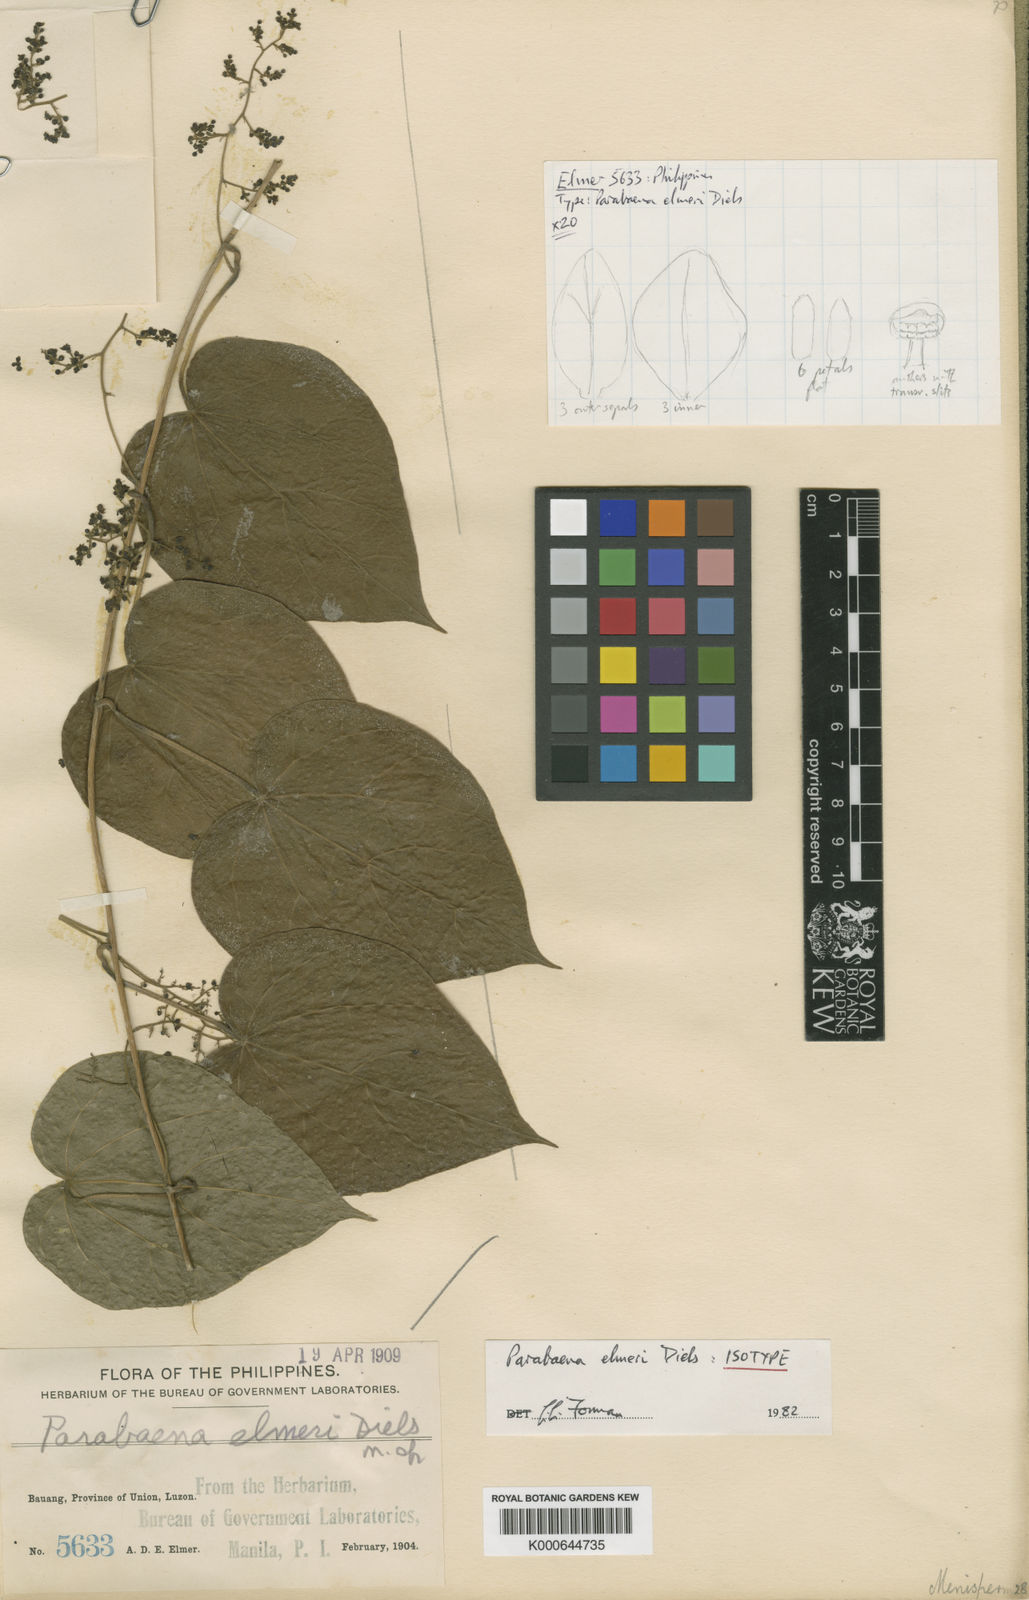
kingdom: Plantae
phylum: Tracheophyta
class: Magnoliopsida
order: Ranunculales
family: Menispermaceae
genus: Parabaena
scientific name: Parabaena elmeri
